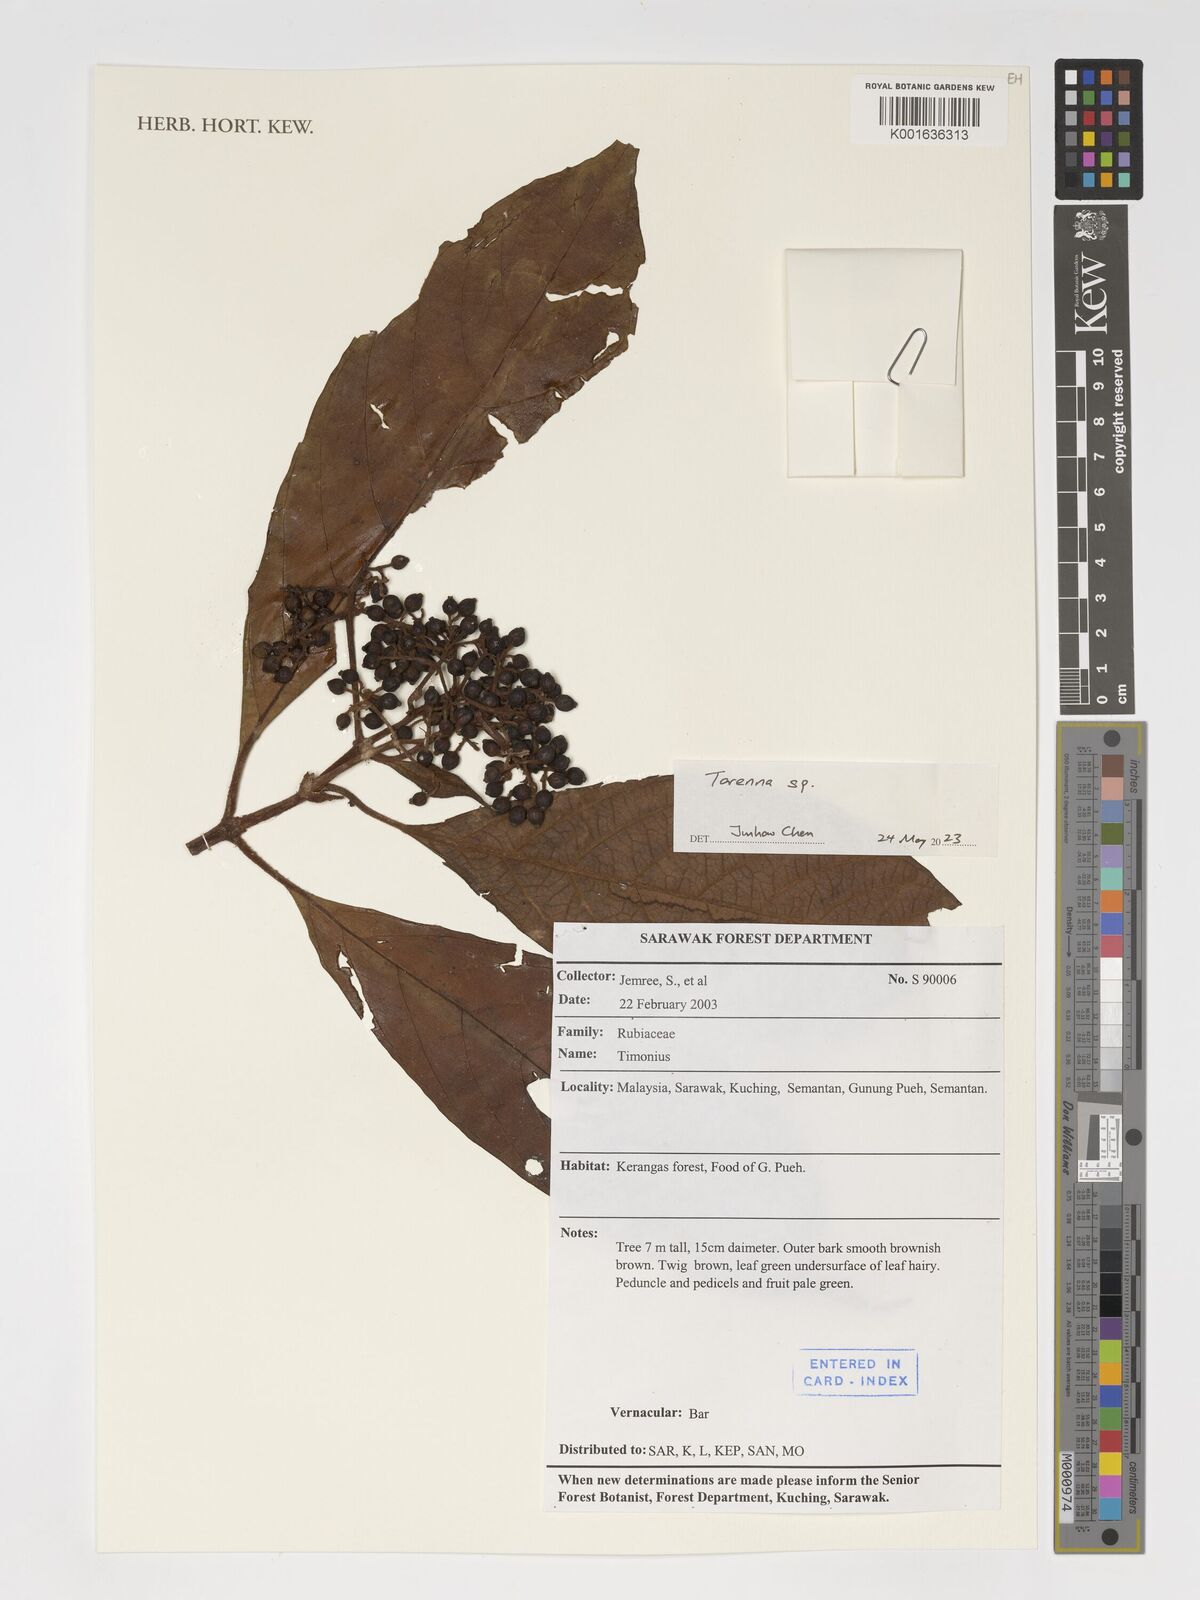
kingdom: Plantae
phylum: Tracheophyta
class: Magnoliopsida
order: Lamiales
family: Linderniaceae
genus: Torenia
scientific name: Torenia
